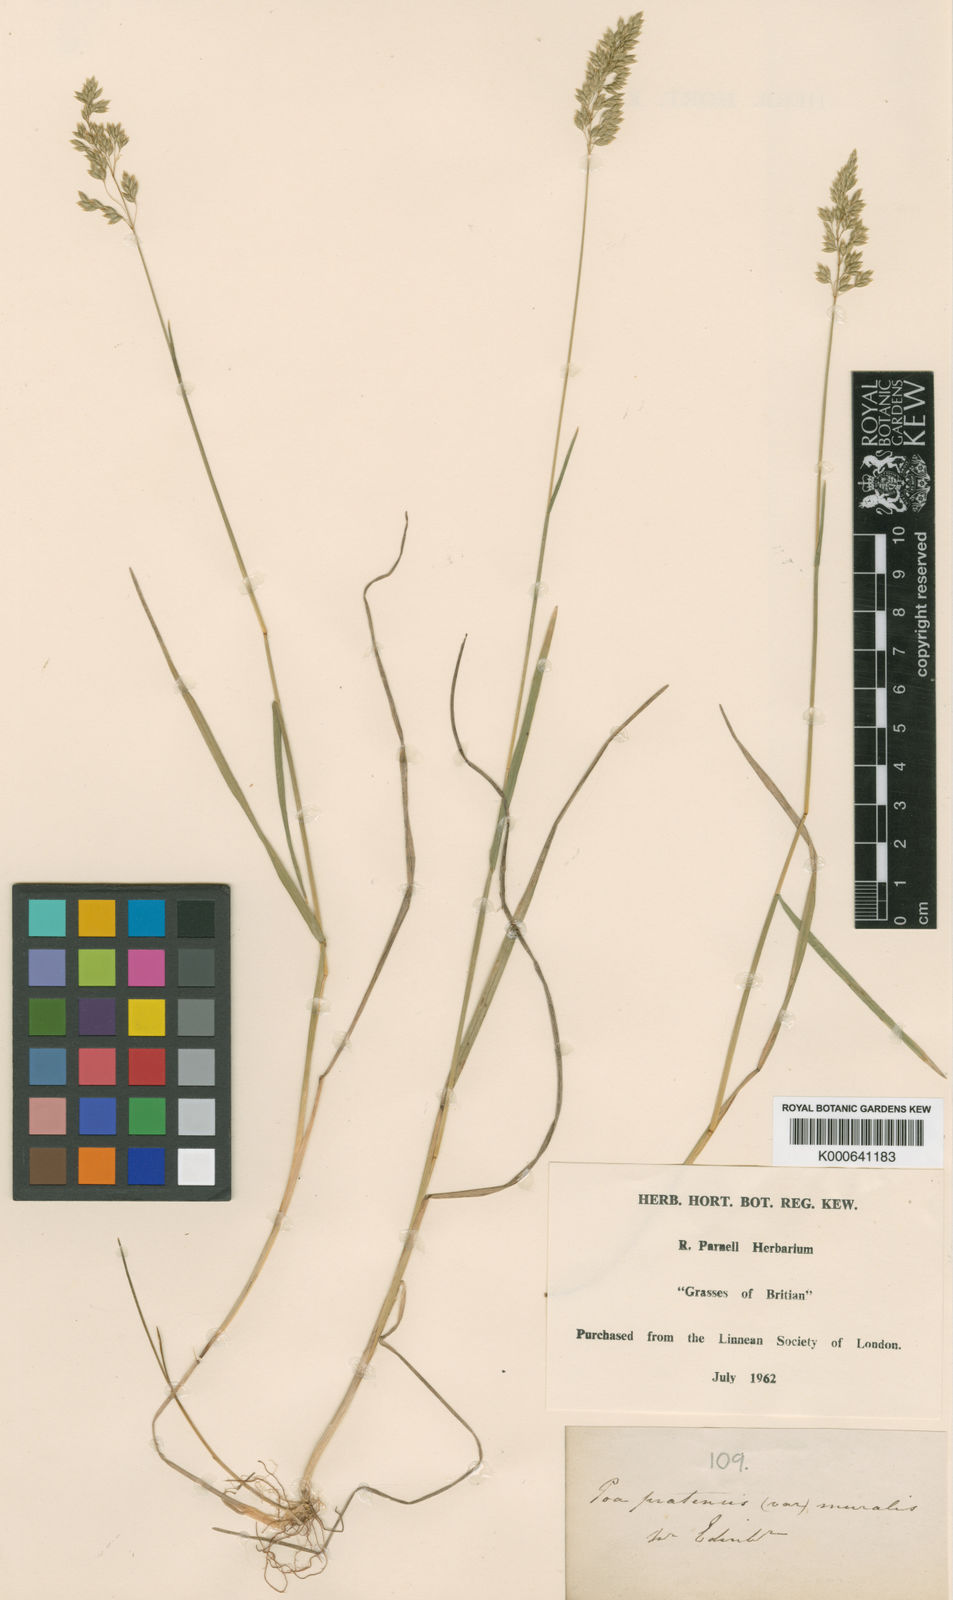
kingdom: Plantae
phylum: Tracheophyta
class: Liliopsida
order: Poales
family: Poaceae
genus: Poa
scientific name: Poa pratensis
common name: Kentucky bluegrass
